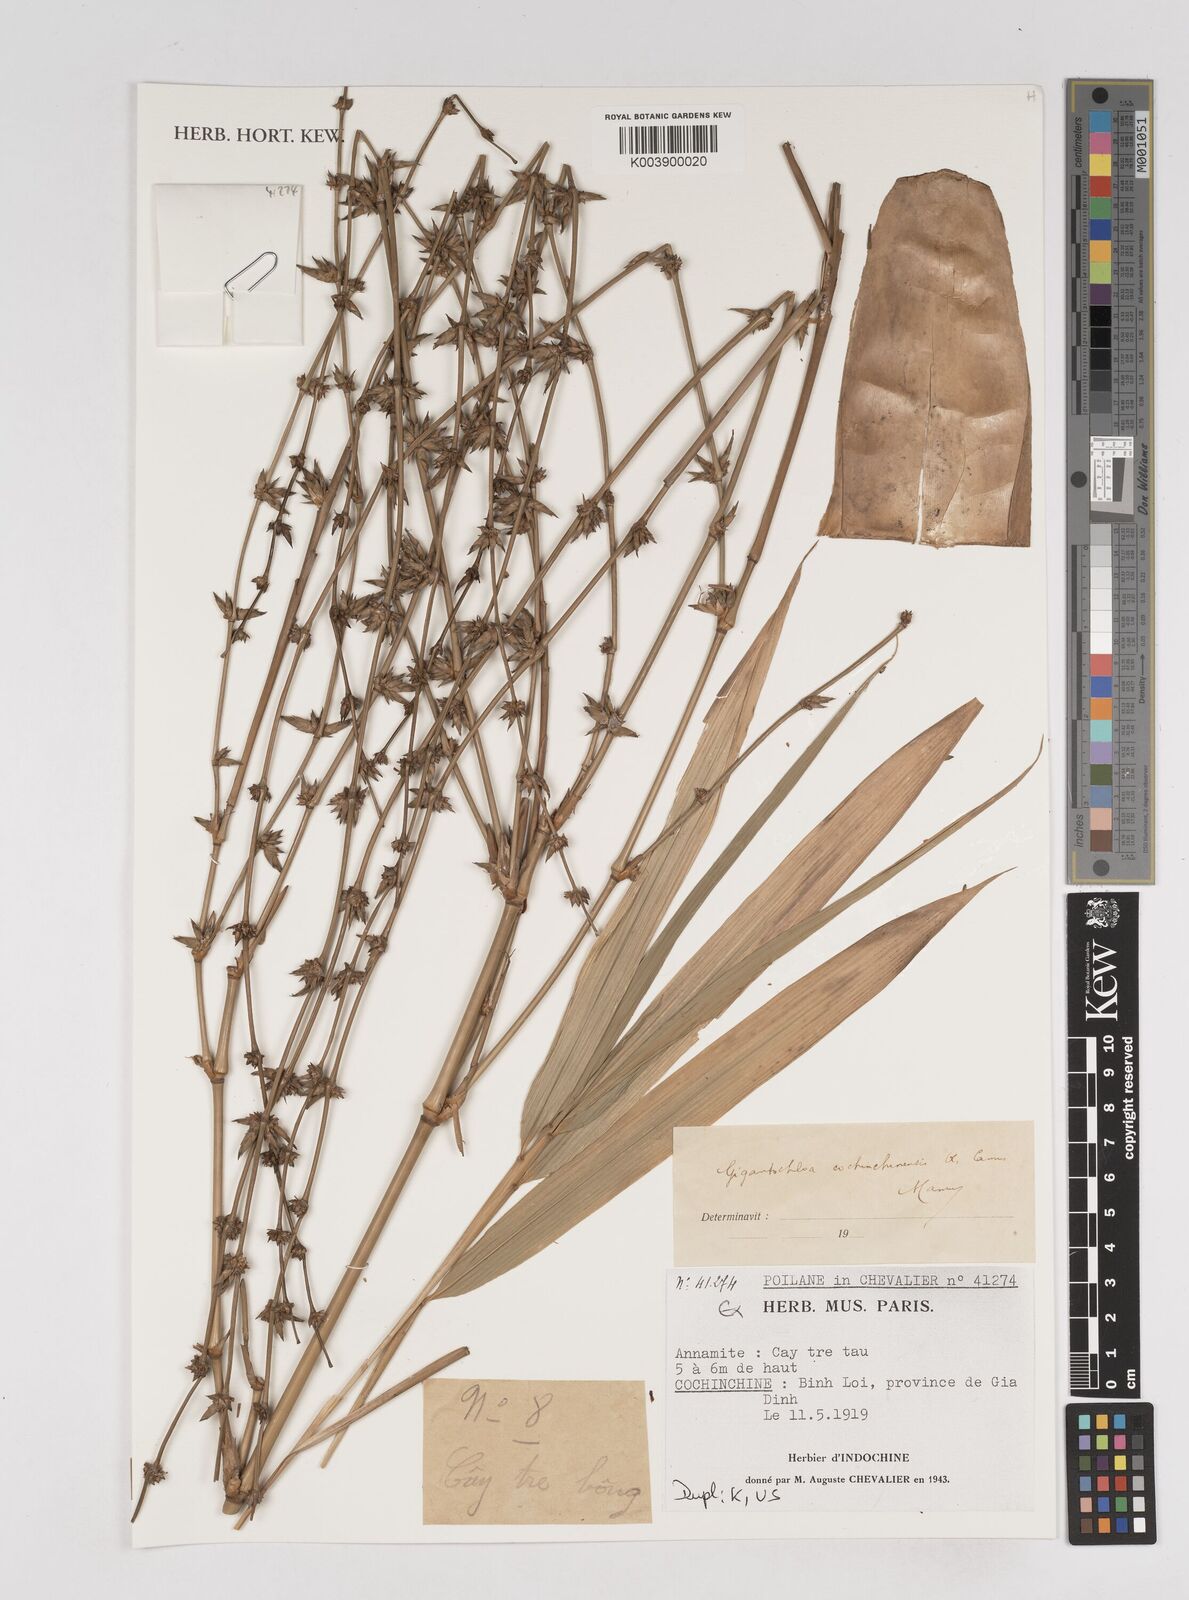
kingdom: Plantae
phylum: Tracheophyta
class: Liliopsida
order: Poales
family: Poaceae
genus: Gigantochloa
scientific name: Gigantochloa cochinchinensis
